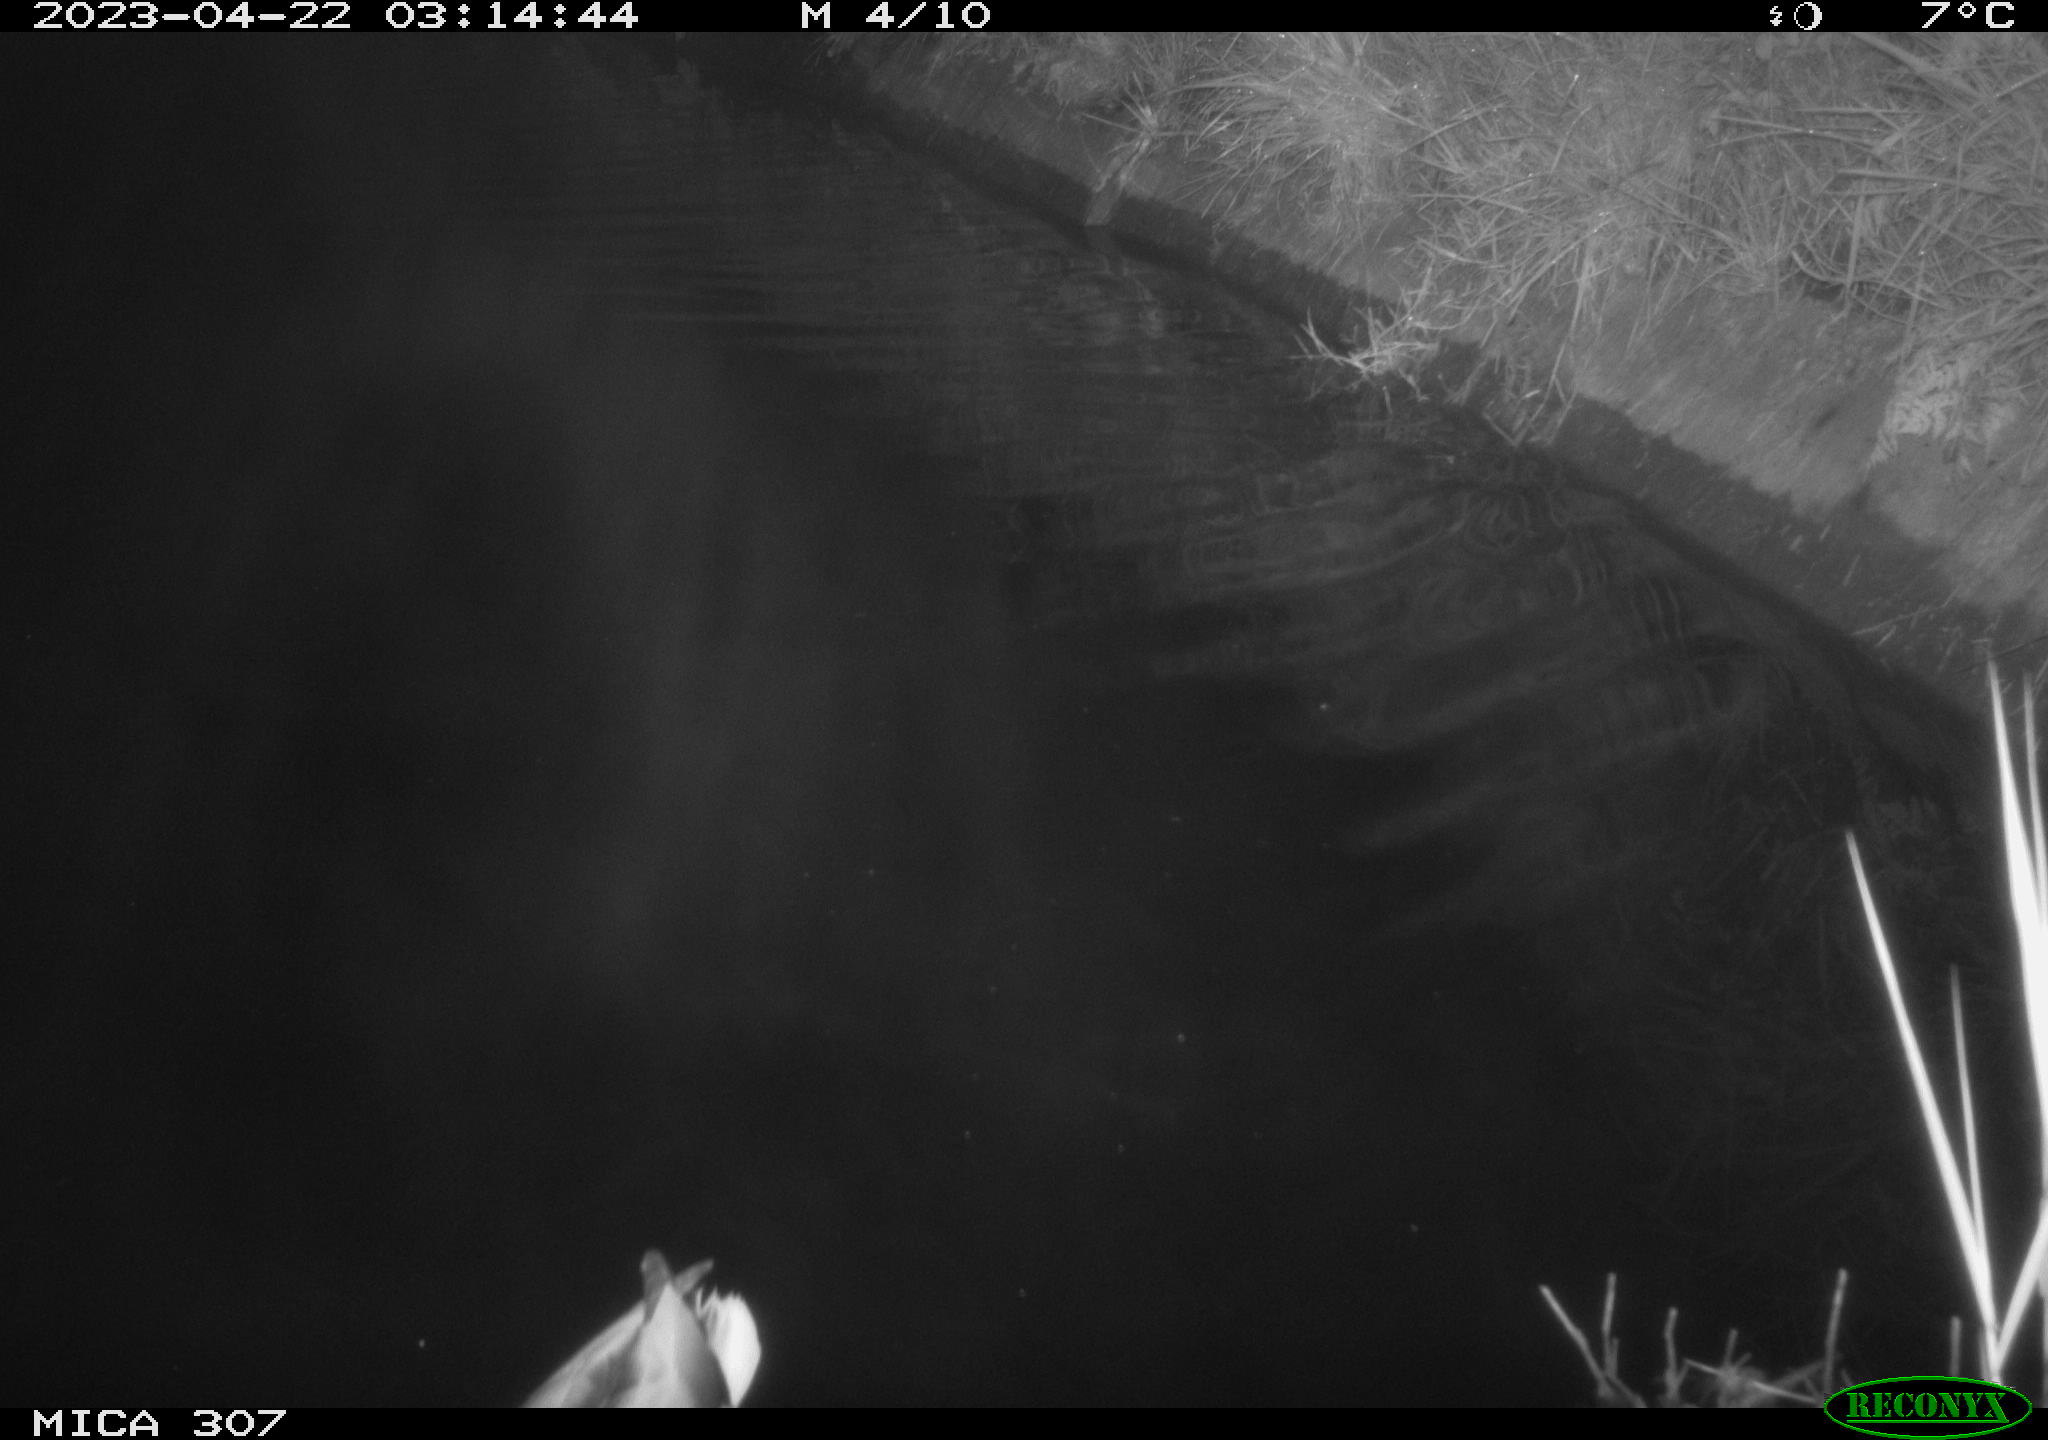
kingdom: Animalia
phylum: Chordata
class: Aves
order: Anseriformes
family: Anatidae
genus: Anas
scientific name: Anas
